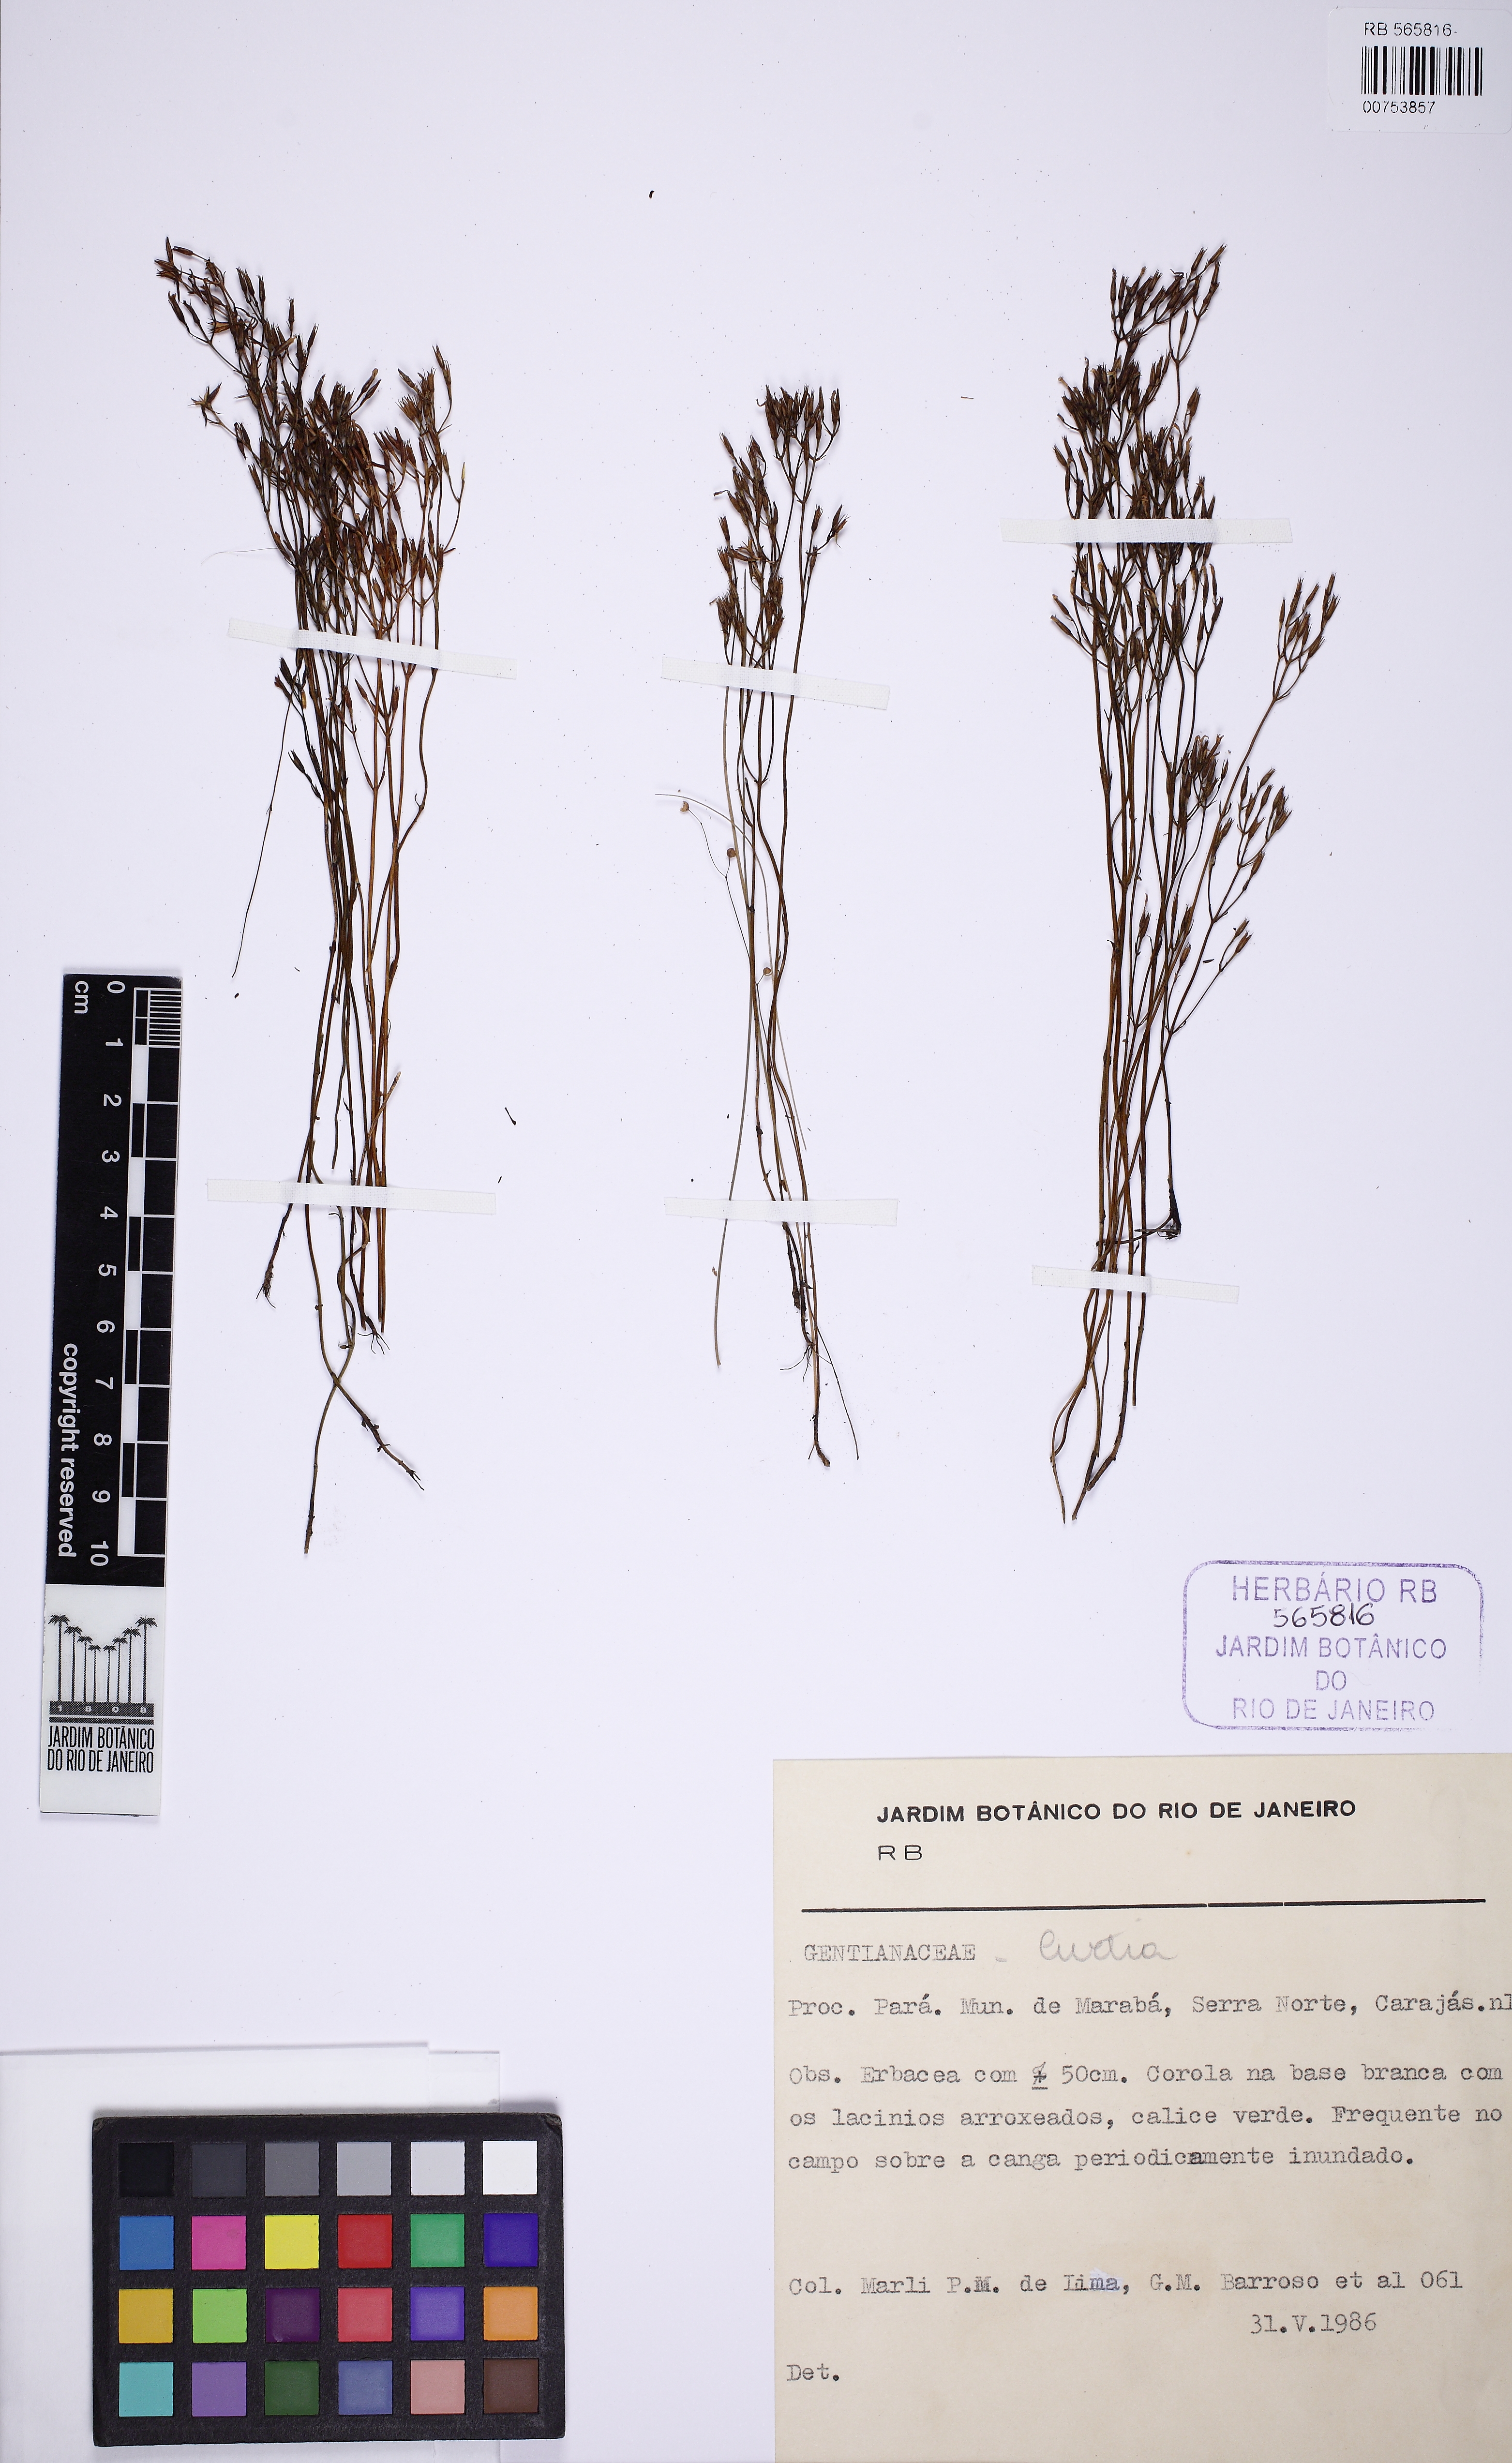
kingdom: Plantae
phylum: Tracheophyta
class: Magnoliopsida
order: Gentianales
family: Gentianaceae
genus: Curtia
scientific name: Curtia tenuifolia
